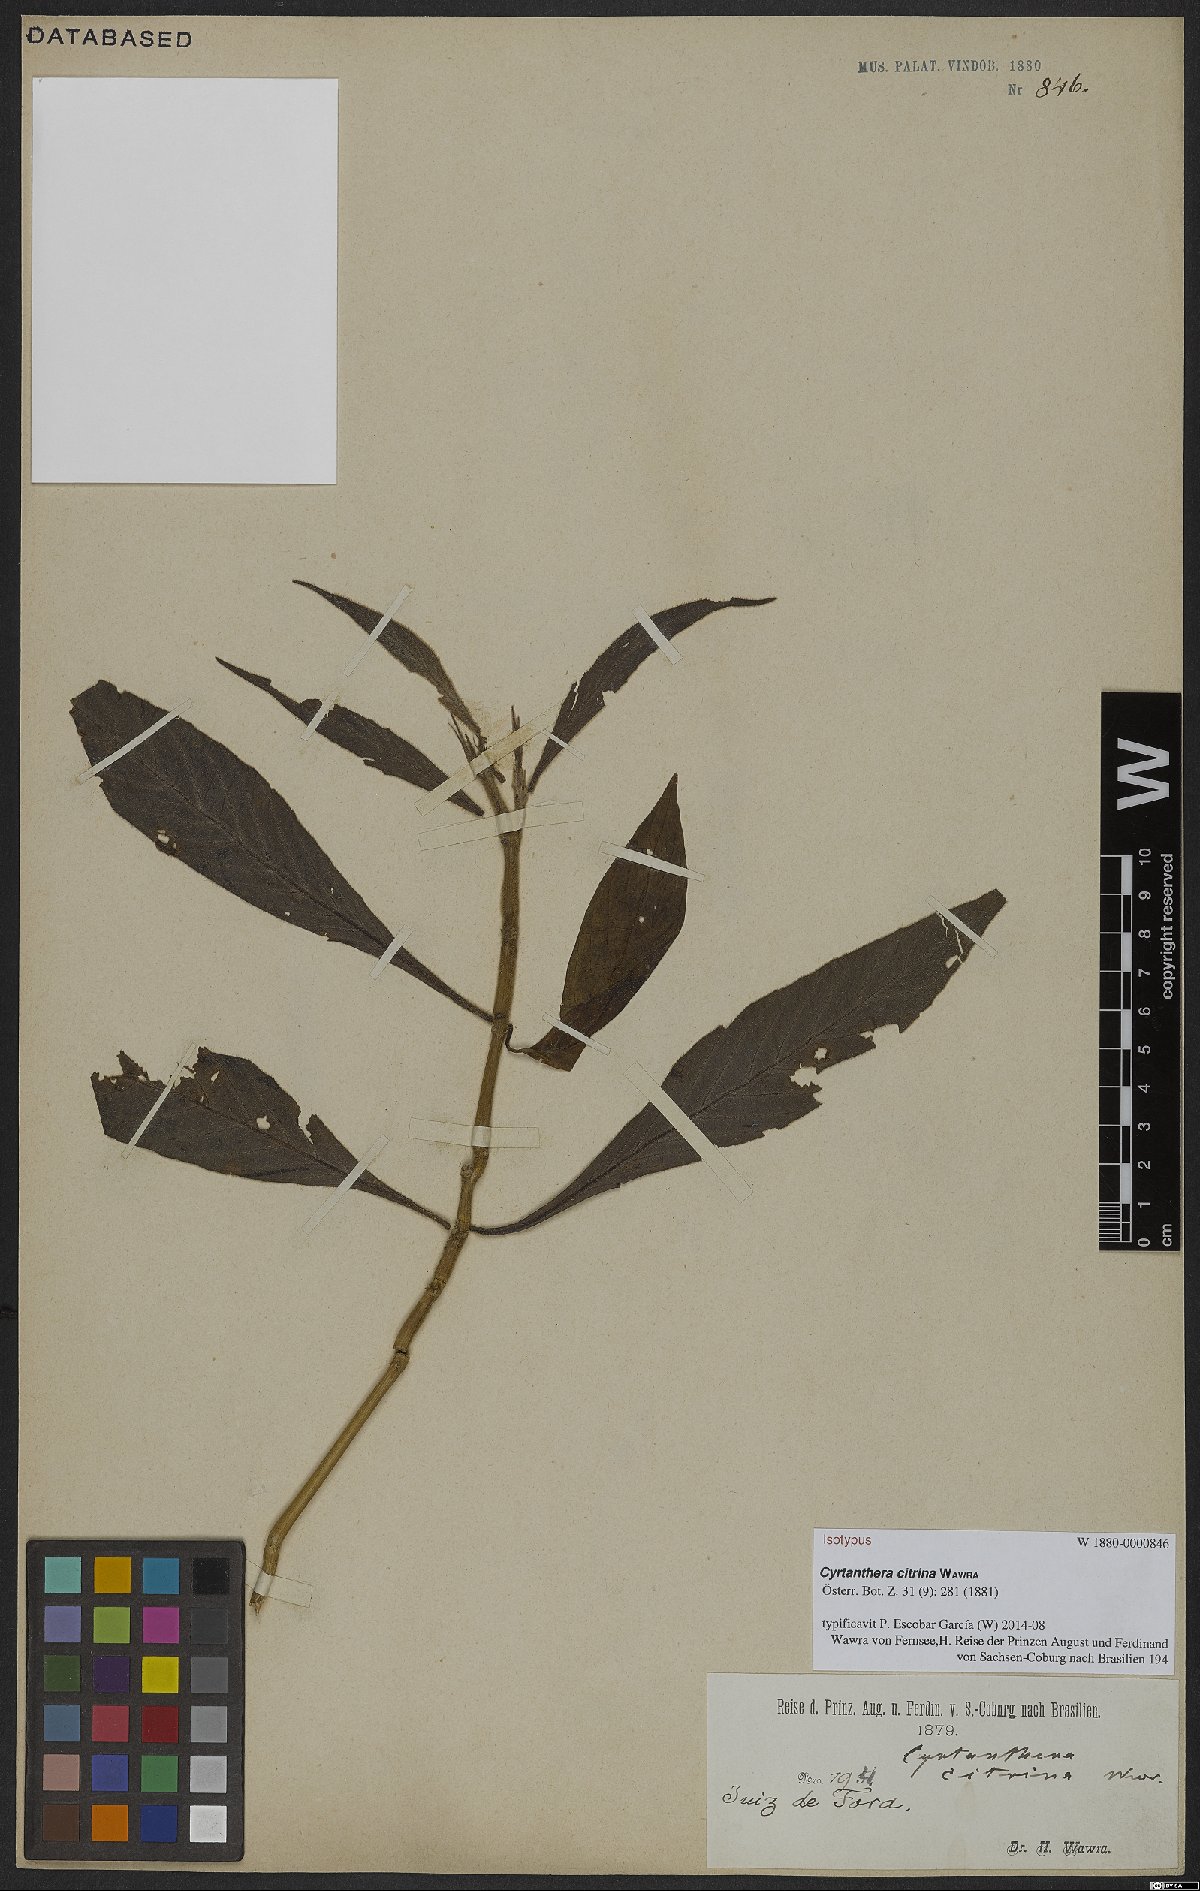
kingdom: Plantae
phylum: Tracheophyta
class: Magnoliopsida
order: Lamiales
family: Acanthaceae
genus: Justicia
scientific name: Justicia citrina
